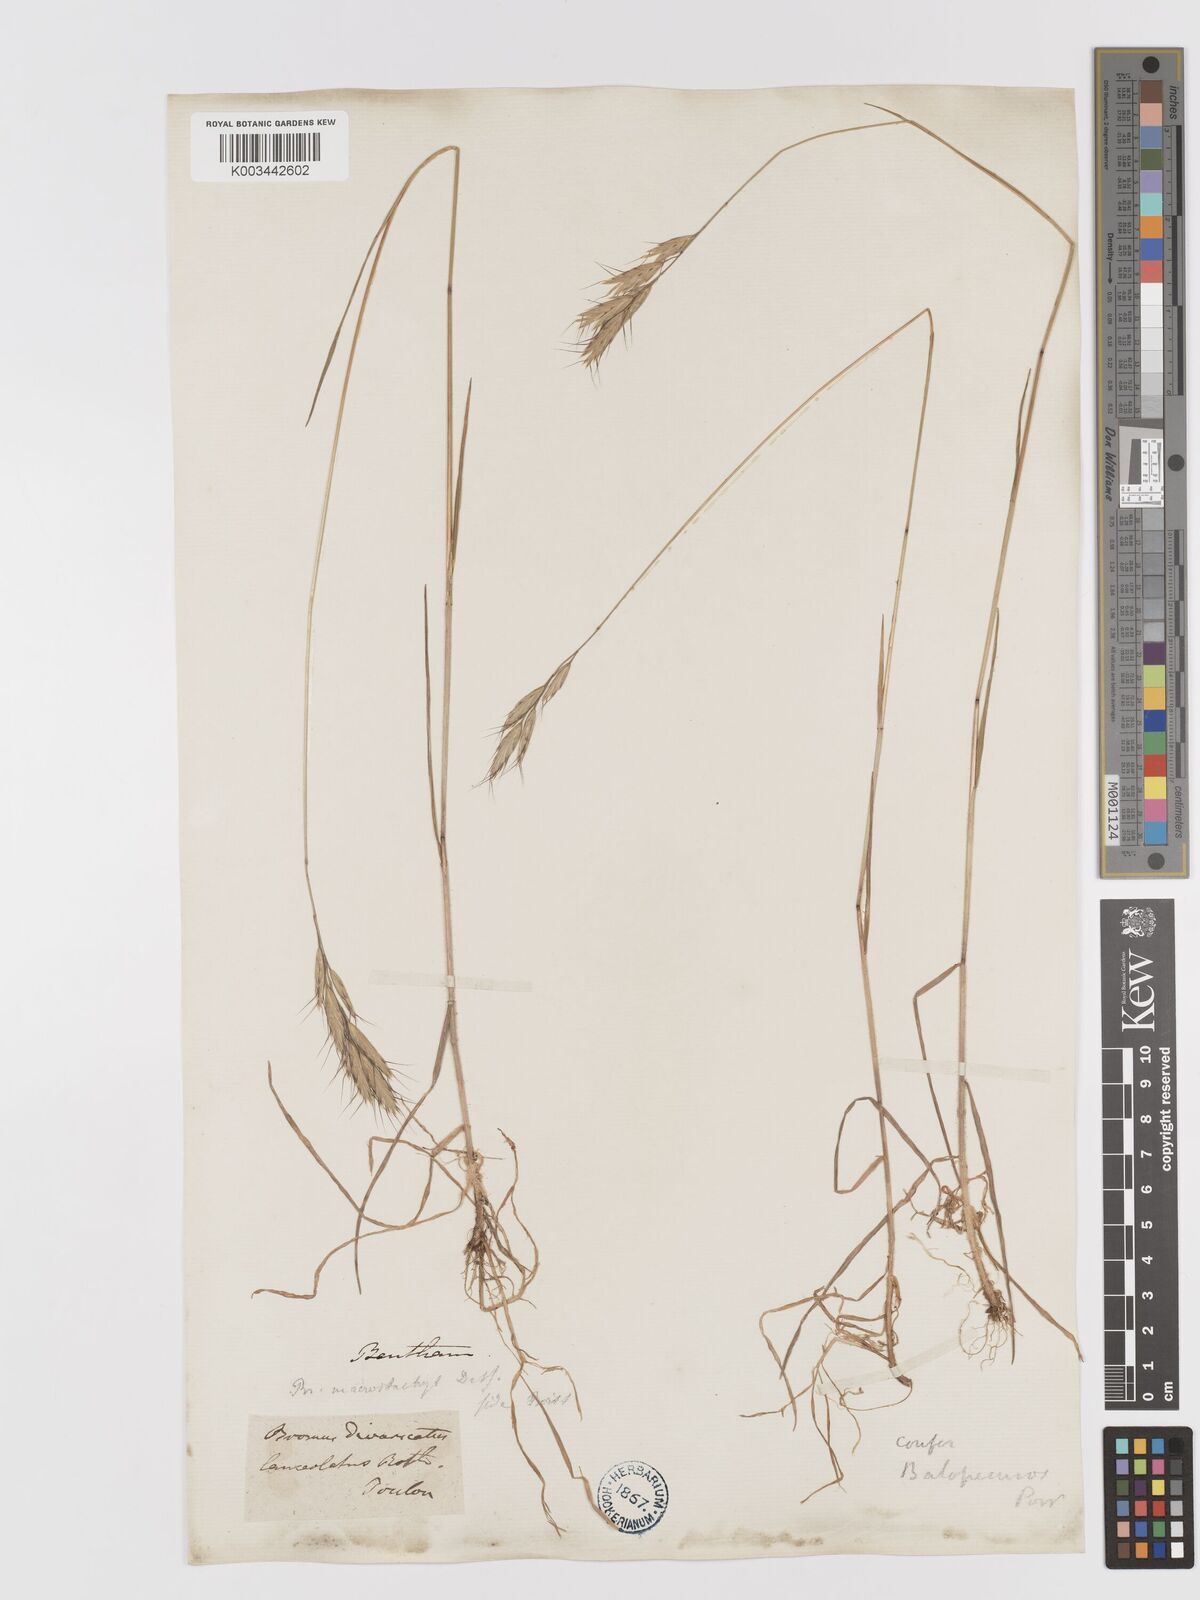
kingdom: Plantae
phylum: Tracheophyta
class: Liliopsida
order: Poales
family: Poaceae
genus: Bromus
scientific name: Bromus lanceolatus
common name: Mediterranean brome
